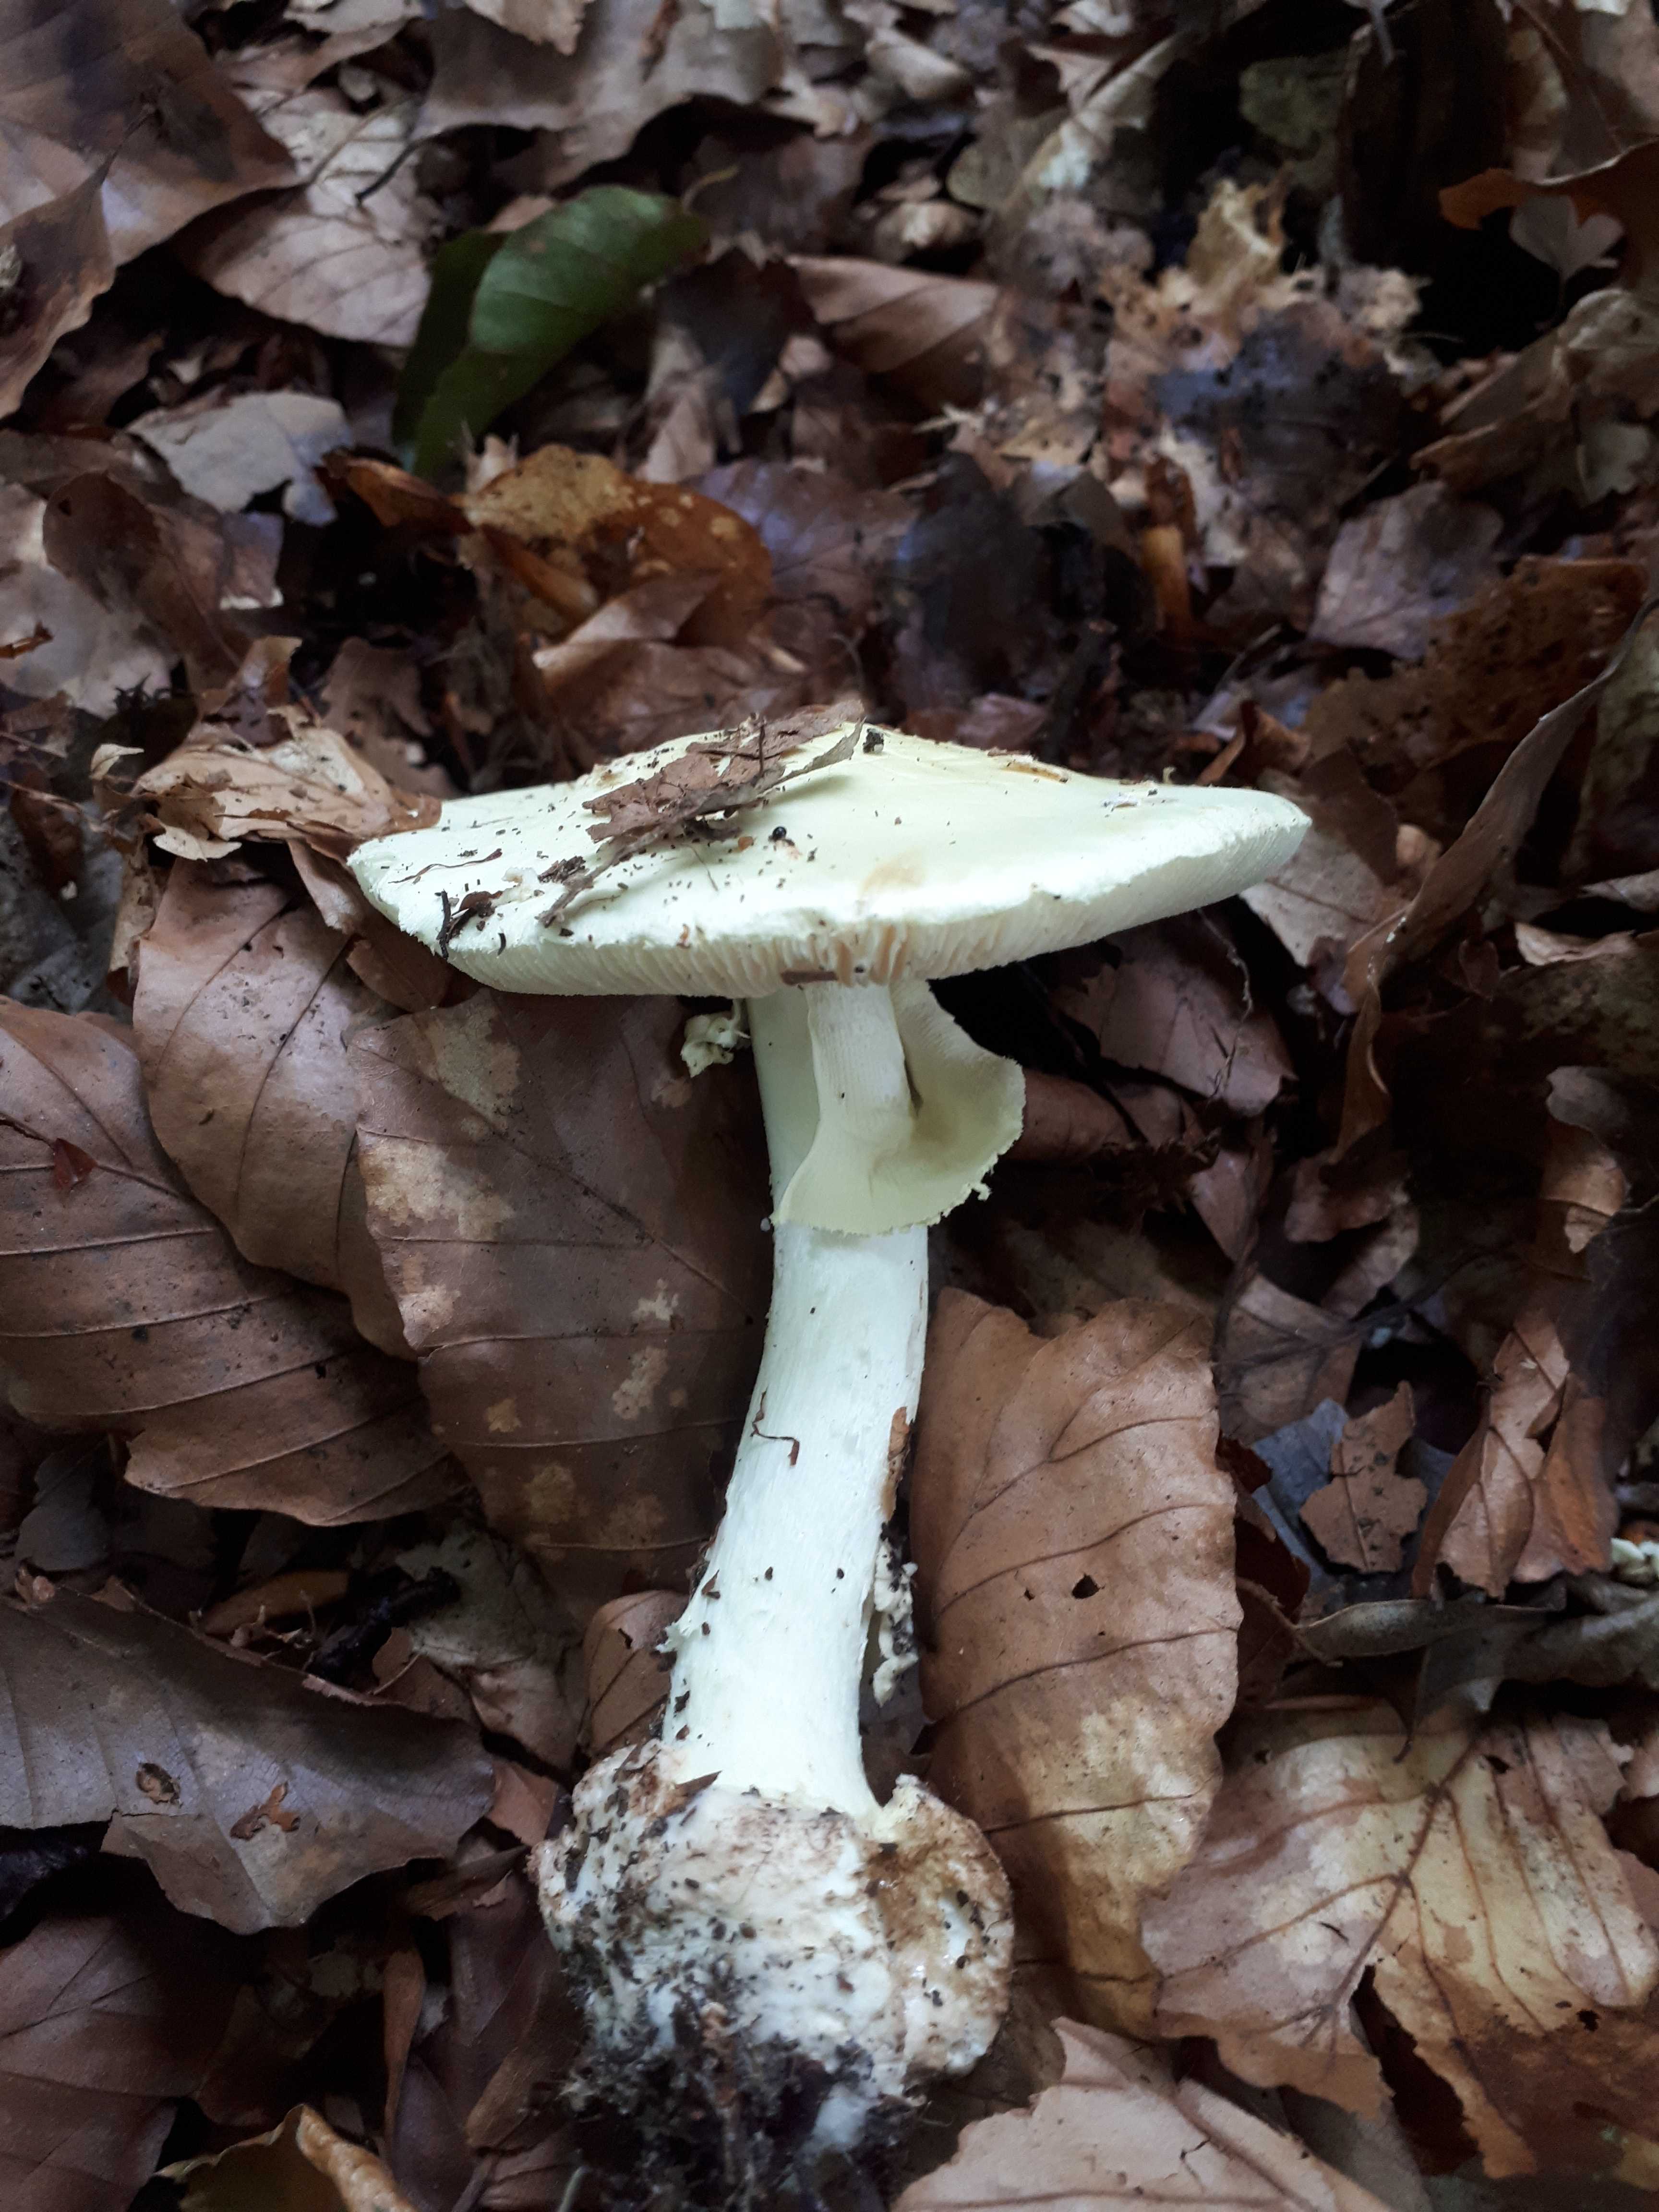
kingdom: Fungi
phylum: Basidiomycota
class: Agaricomycetes
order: Agaricales
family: Amanitaceae
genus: Amanita
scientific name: Amanita citrina
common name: kugleknoldet fluesvamp
